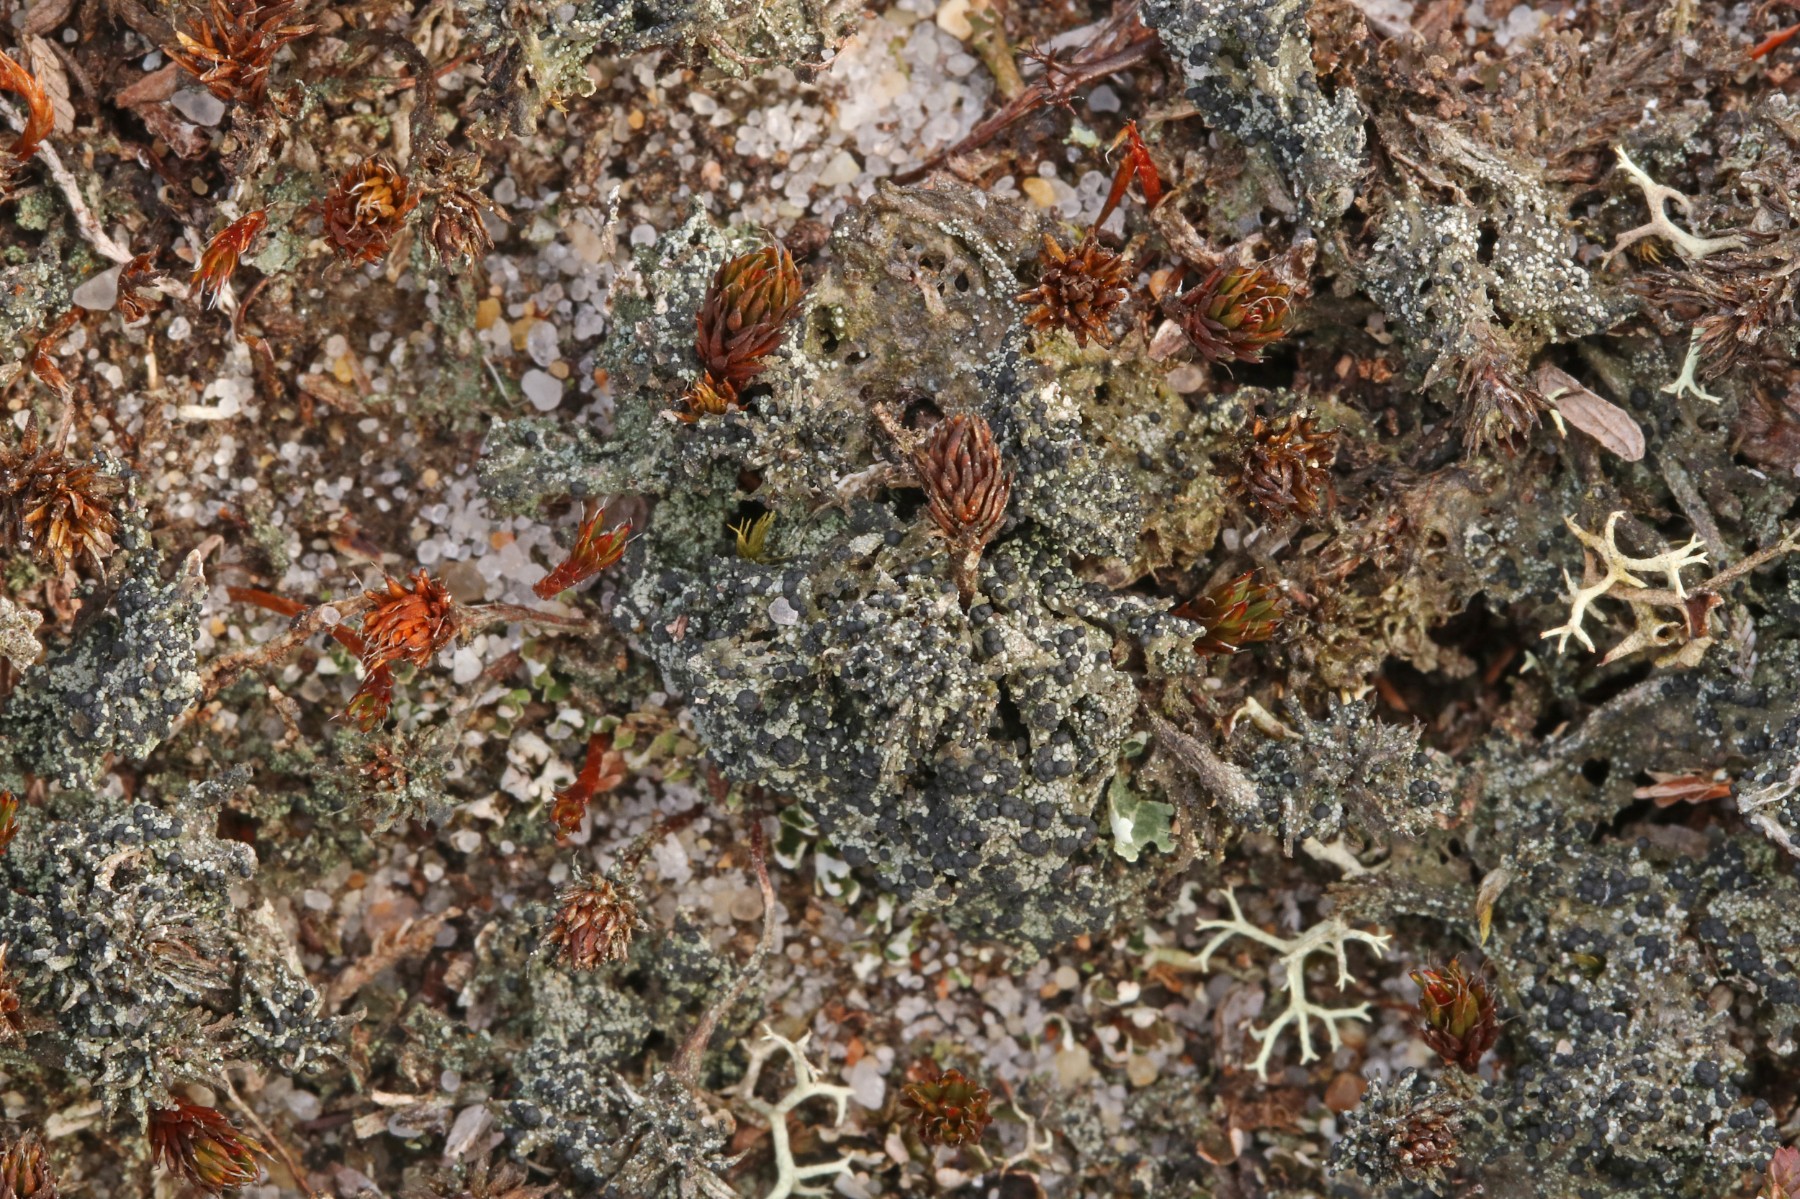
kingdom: Fungi
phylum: Ascomycota
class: Lecanoromycetes
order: Lecanorales
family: Byssolomataceae
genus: Micarea
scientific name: Micarea lignaria
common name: tørve-knaplav
